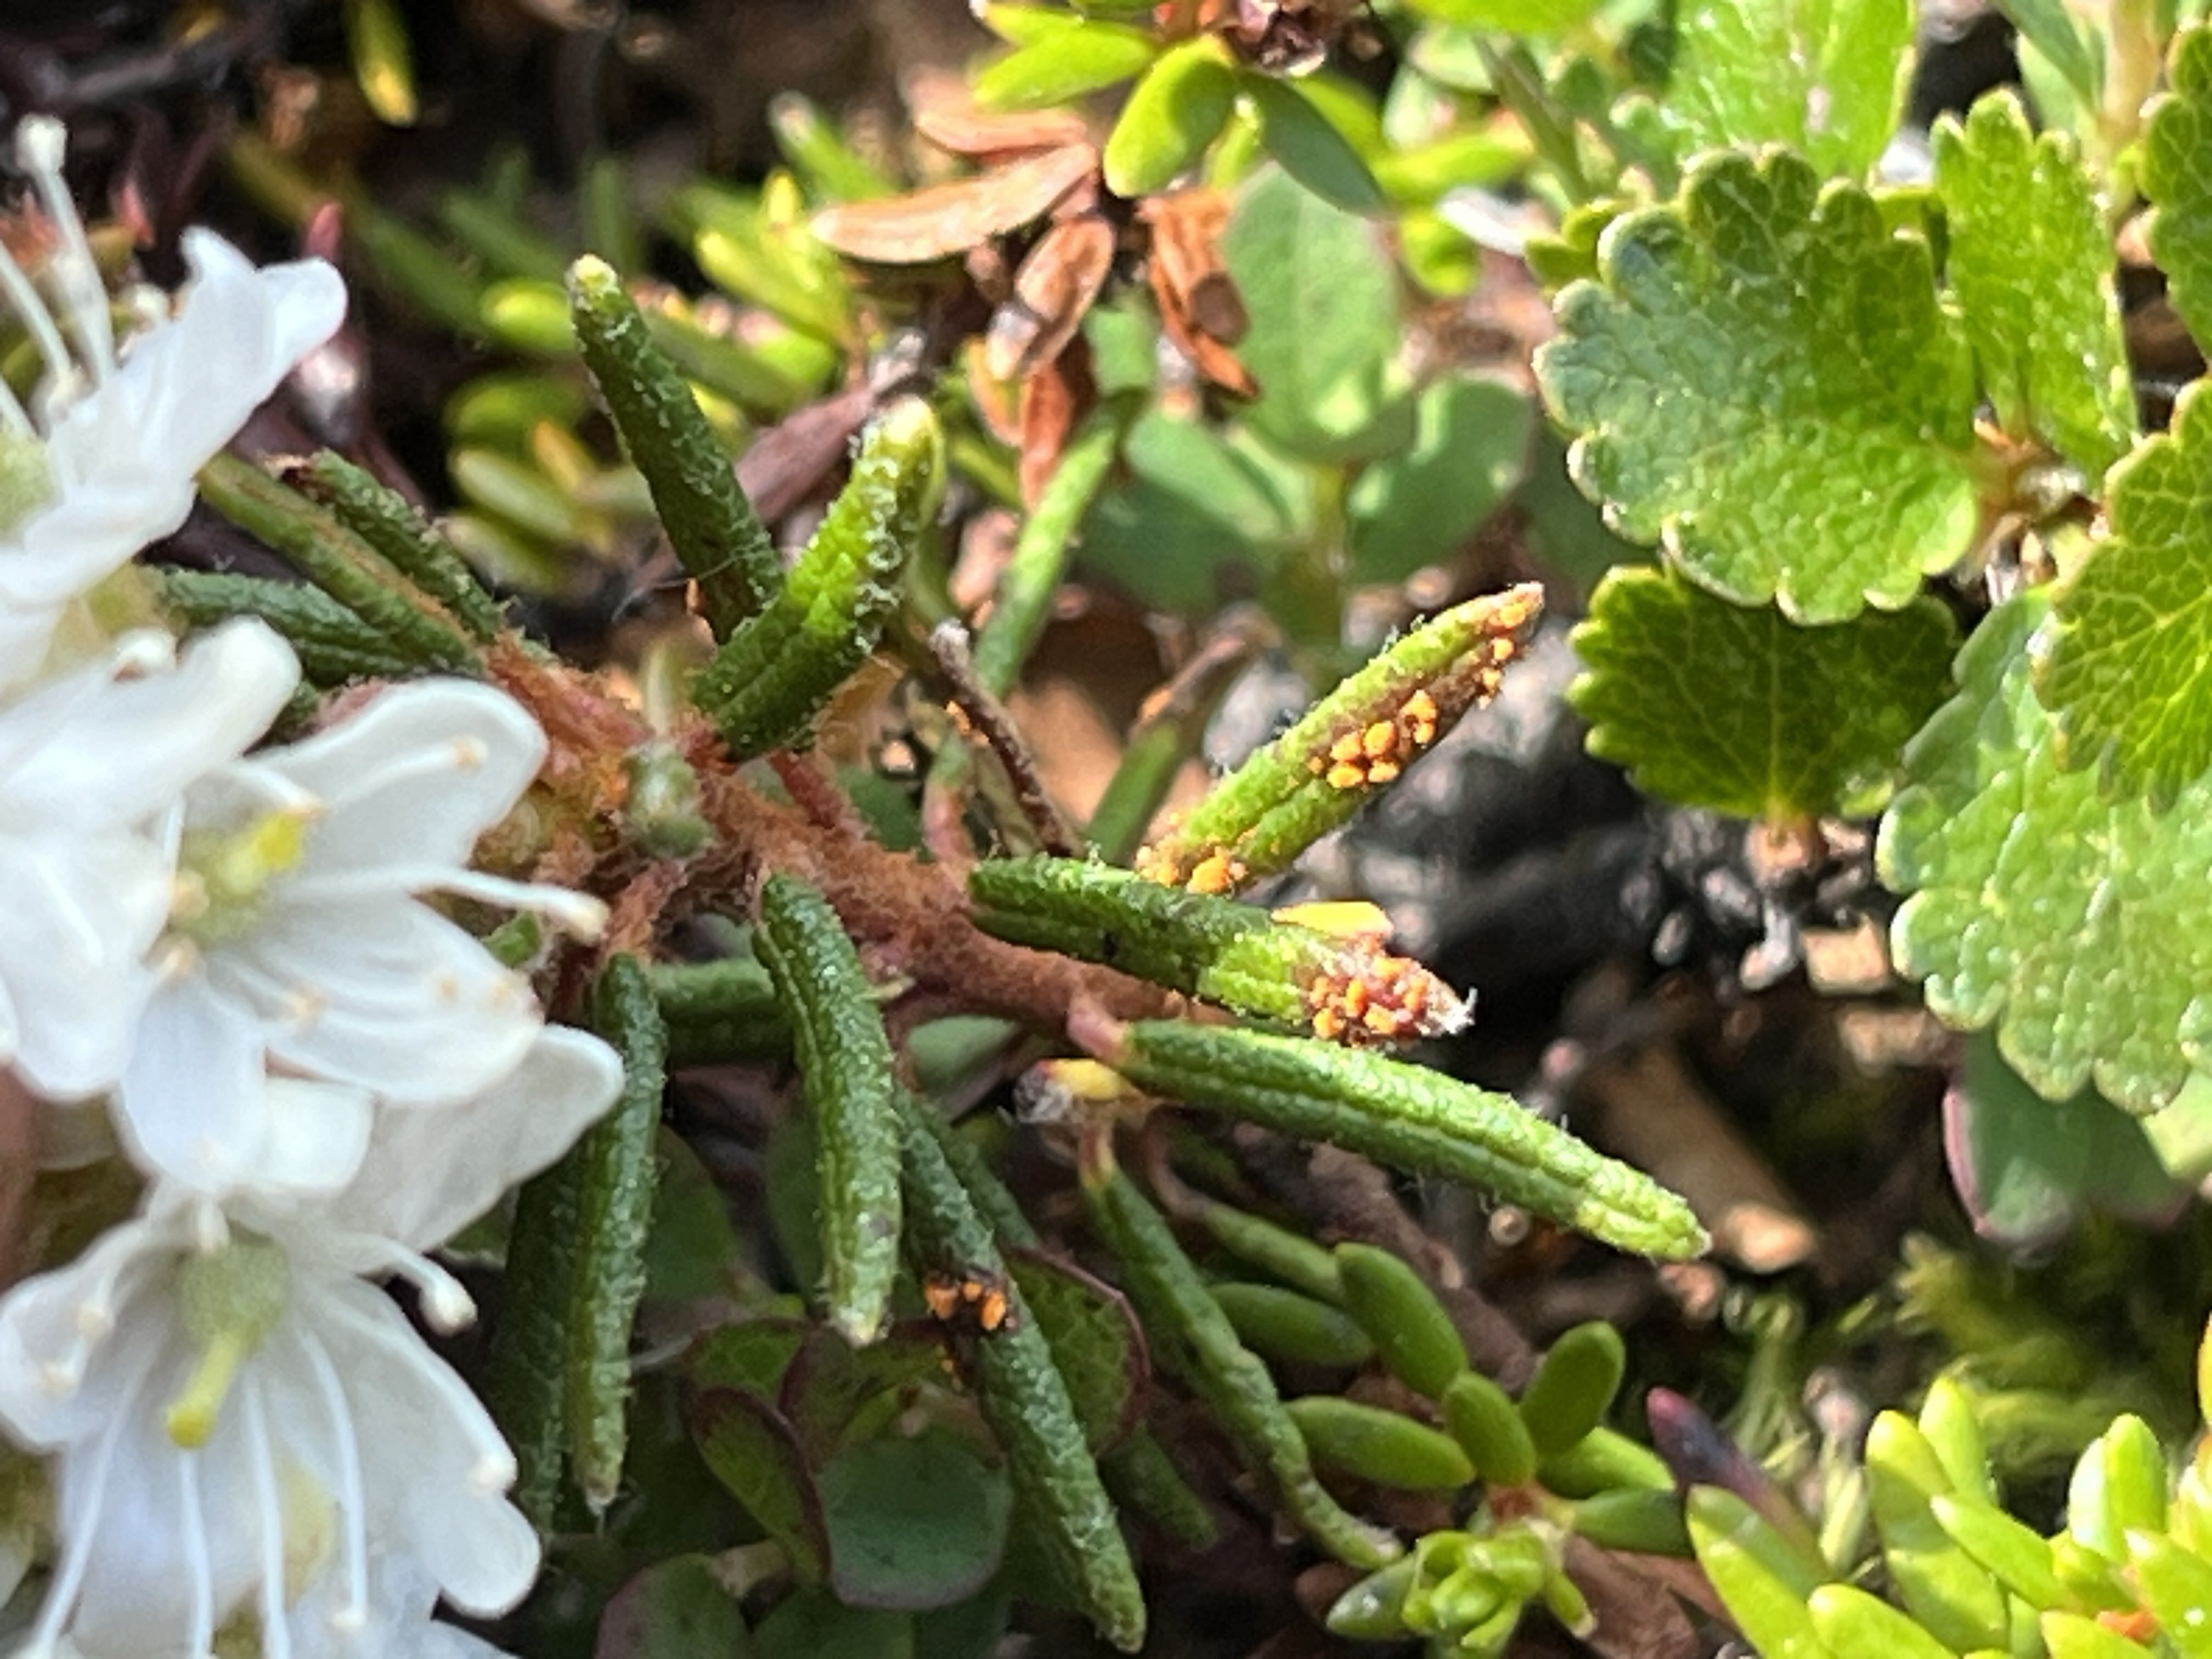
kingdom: Fungi
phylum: Basidiomycota
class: Pucciniomycetes
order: Pucciniales
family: Coleosporiaceae
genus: Chrysomyxa
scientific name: Chrysomyxa ledi
